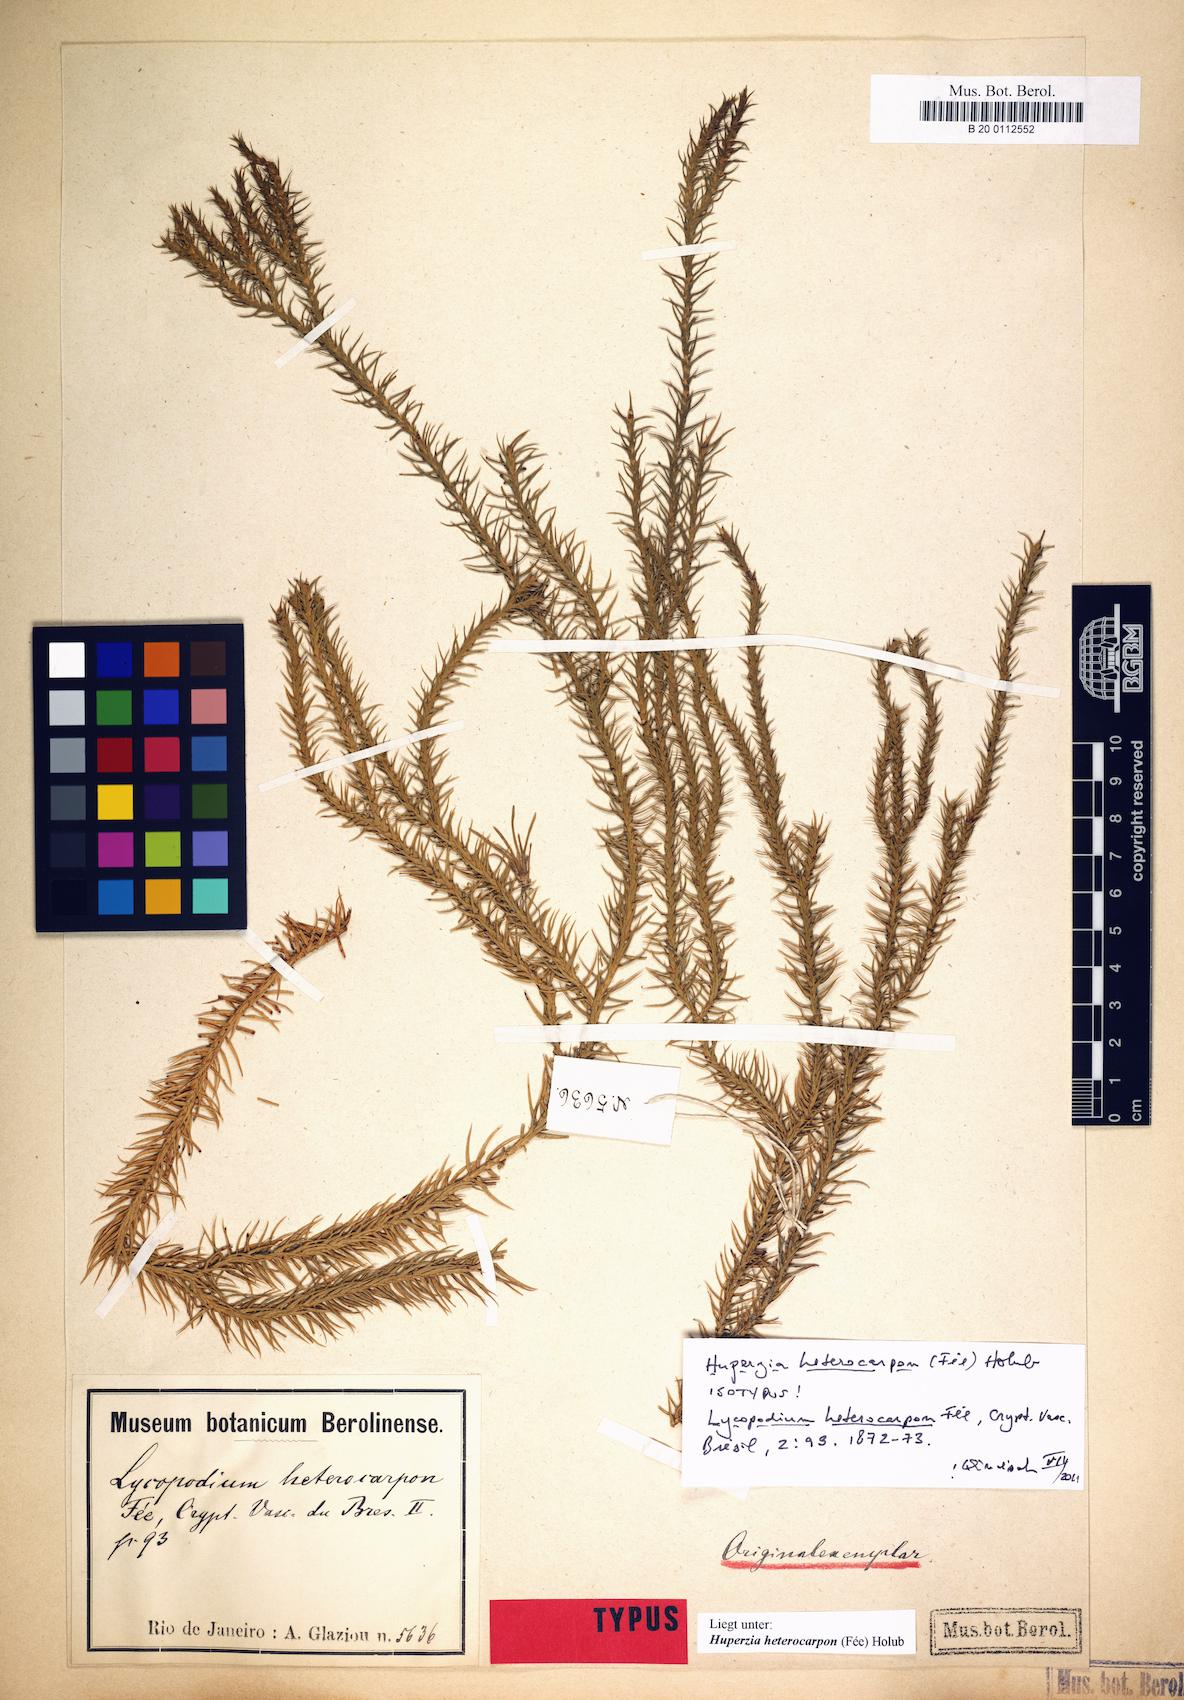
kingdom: Plantae
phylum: Tracheophyta
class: Lycopodiopsida
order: Lycopodiales
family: Lycopodiaceae
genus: Phlegmariurus
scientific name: Phlegmariurus heterocarpos
